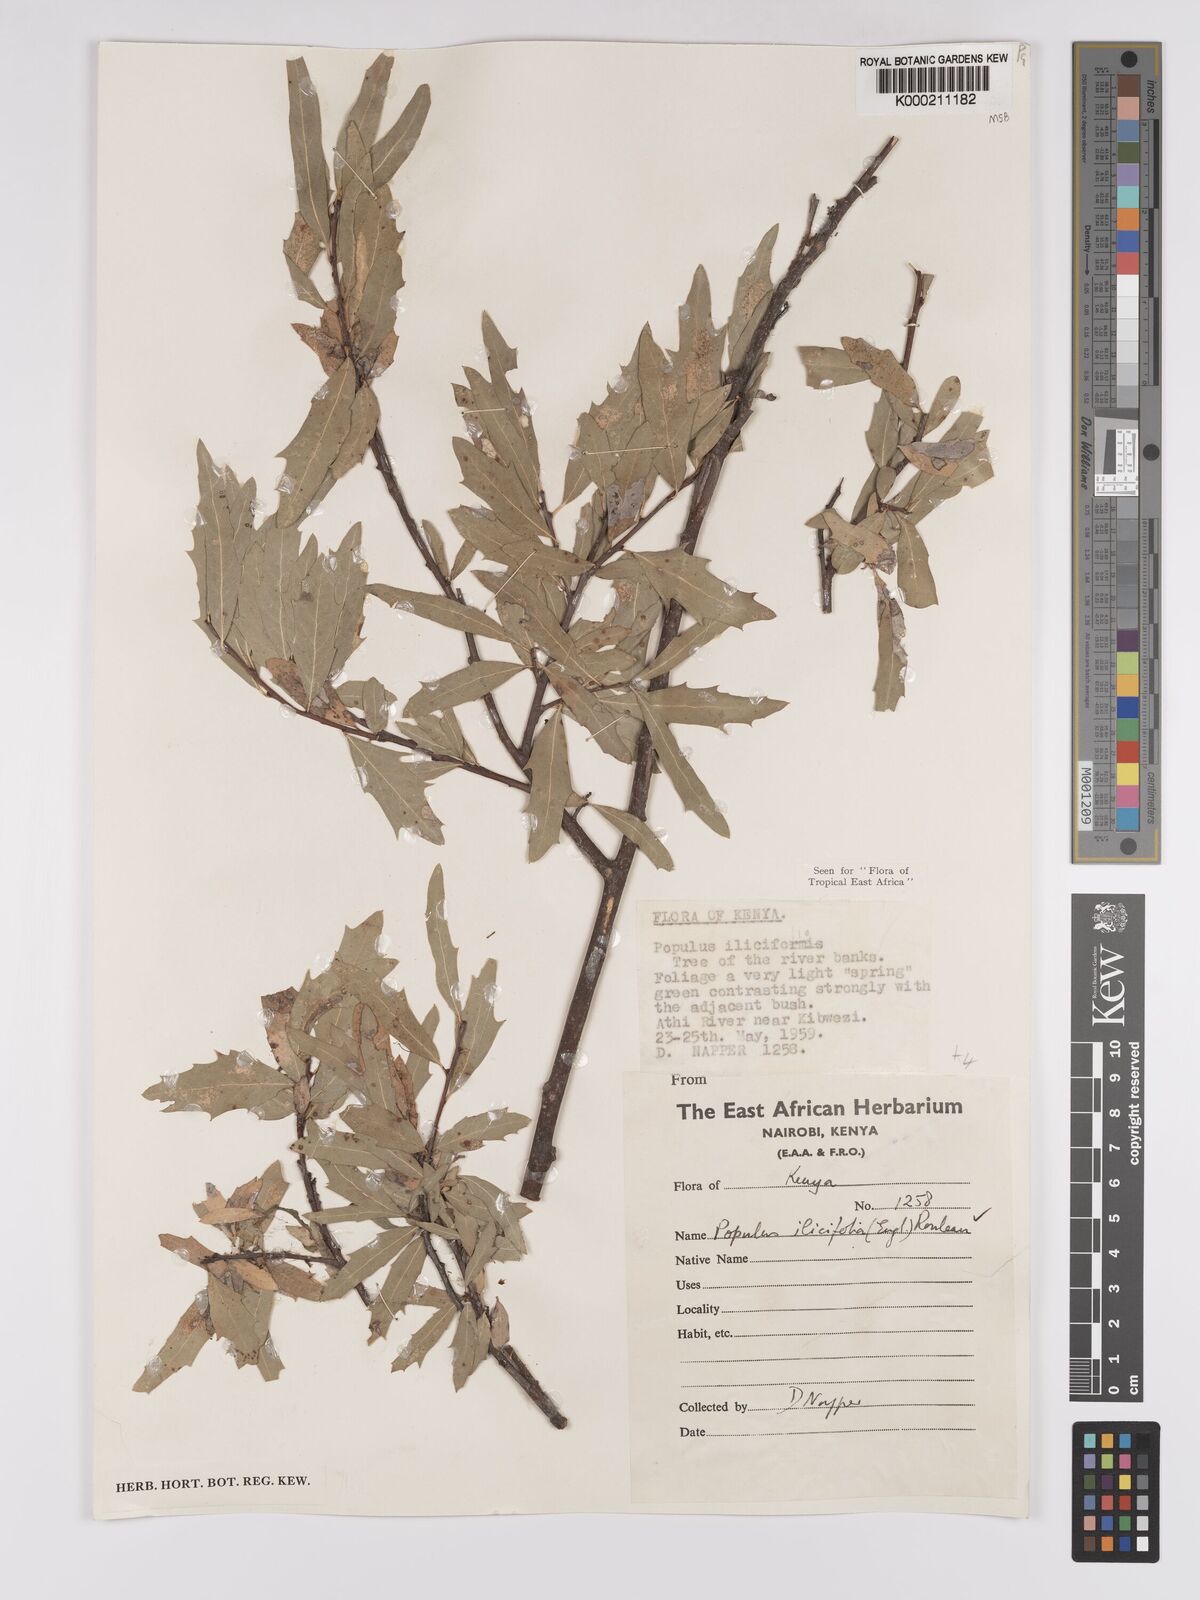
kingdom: Plantae
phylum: Tracheophyta
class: Magnoliopsida
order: Malpighiales
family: Salicaceae
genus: Populus
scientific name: Populus ilicifolia
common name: Tana river poplar
